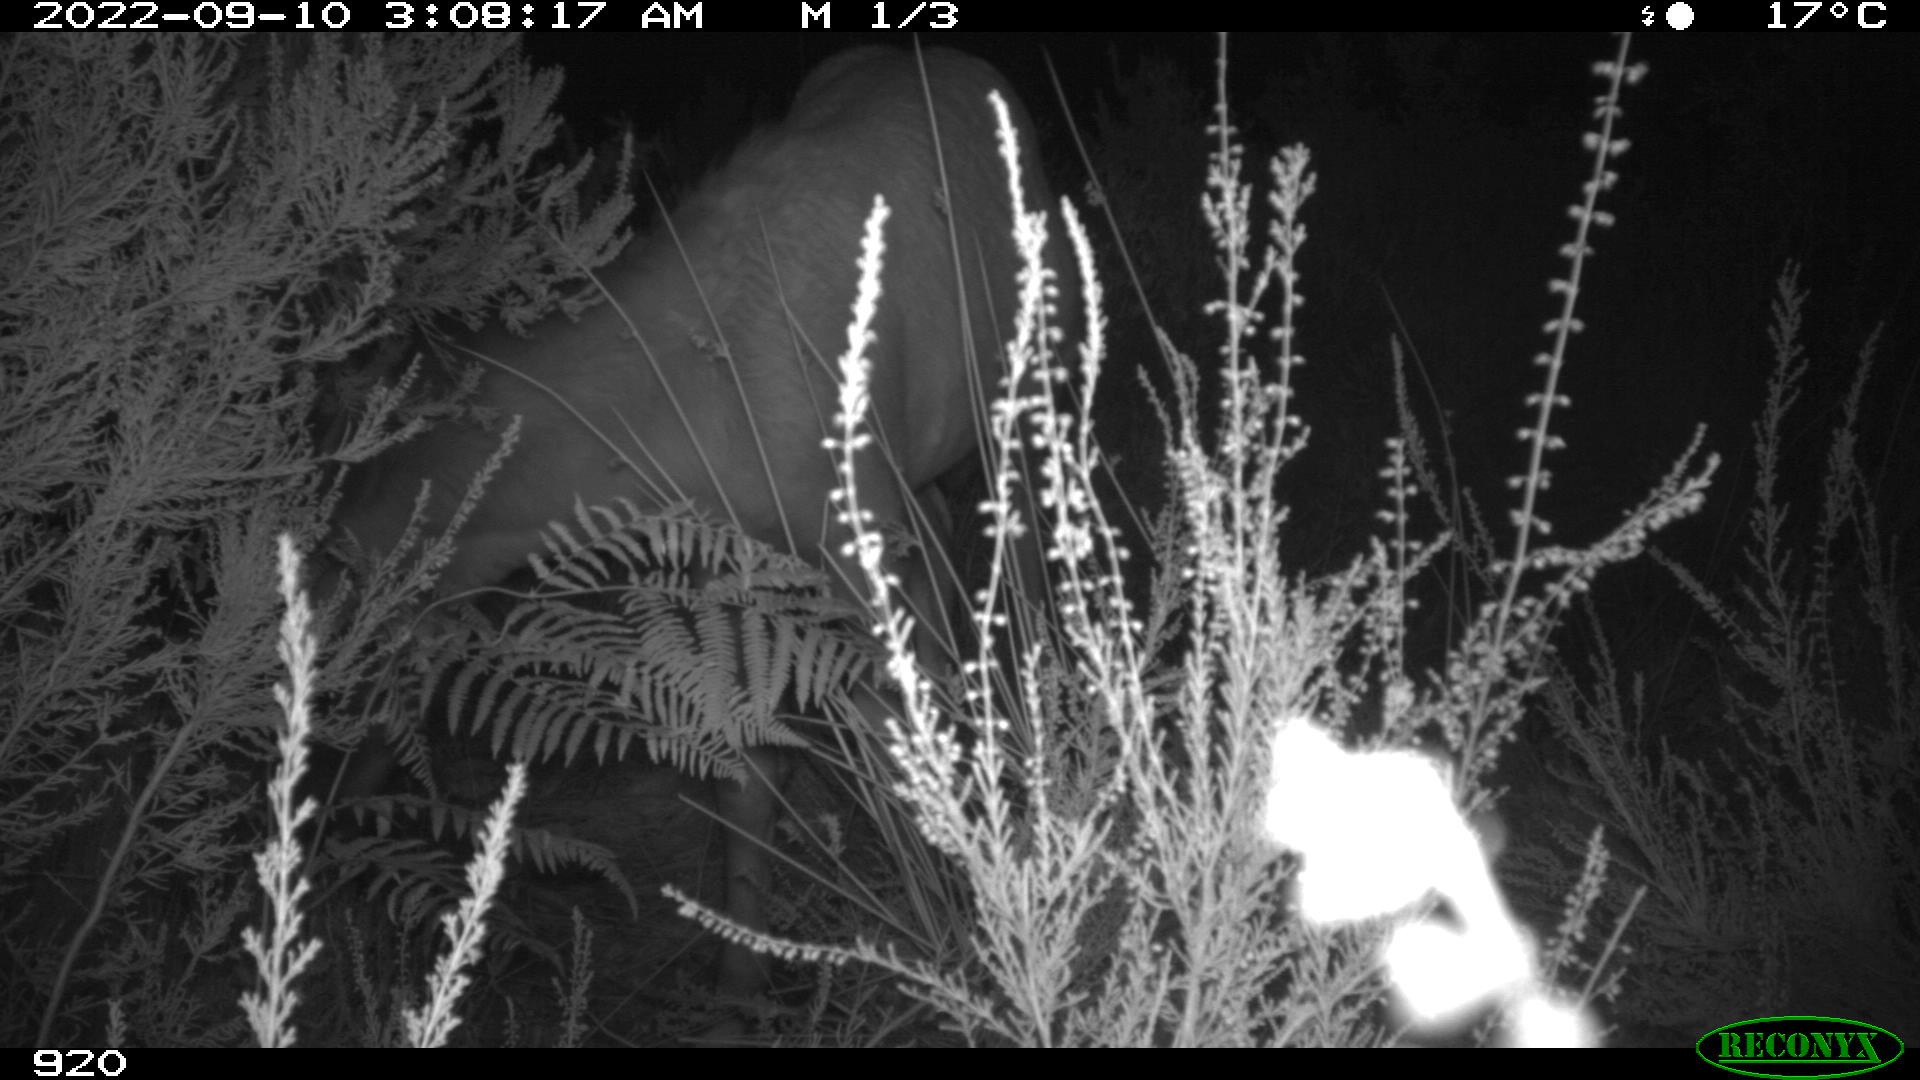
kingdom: Animalia
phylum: Chordata
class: Mammalia
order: Perissodactyla
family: Equidae
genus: Equus
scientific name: Equus caballus
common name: Horse
